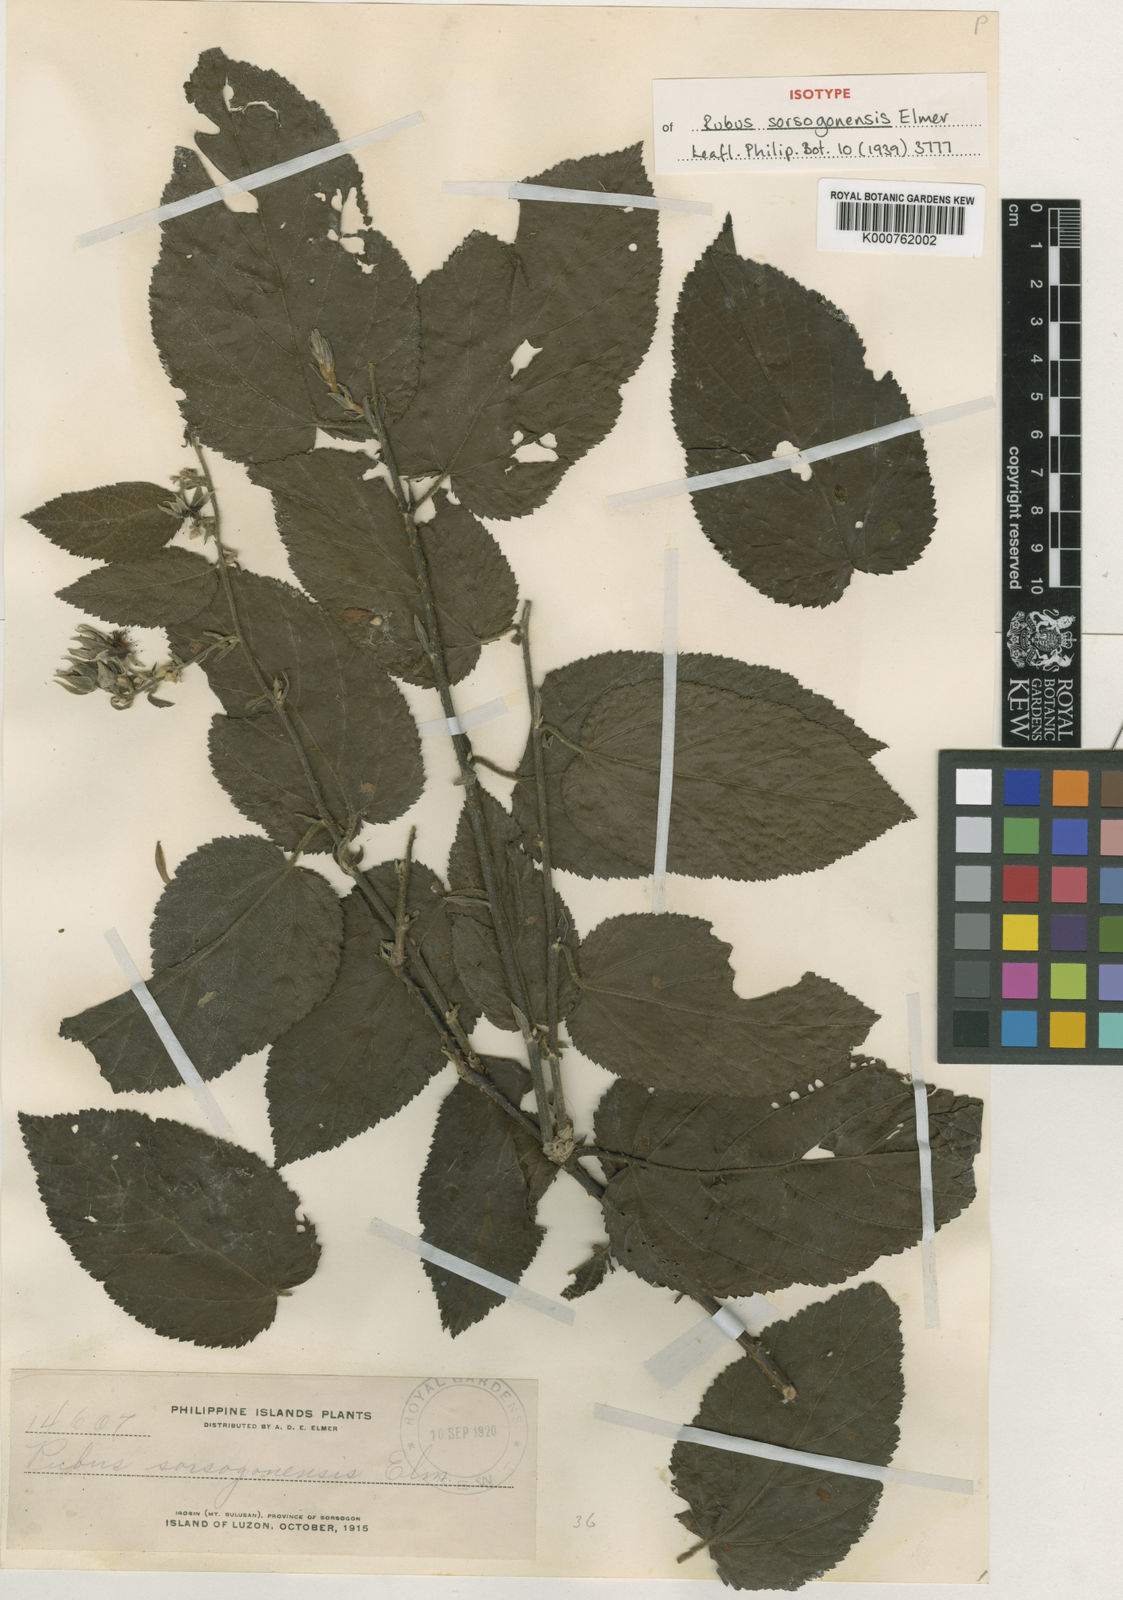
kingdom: Plantae
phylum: Tracheophyta
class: Magnoliopsida
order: Rosales
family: Rosaceae
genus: Rubus
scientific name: Rubus sorsogonensis
